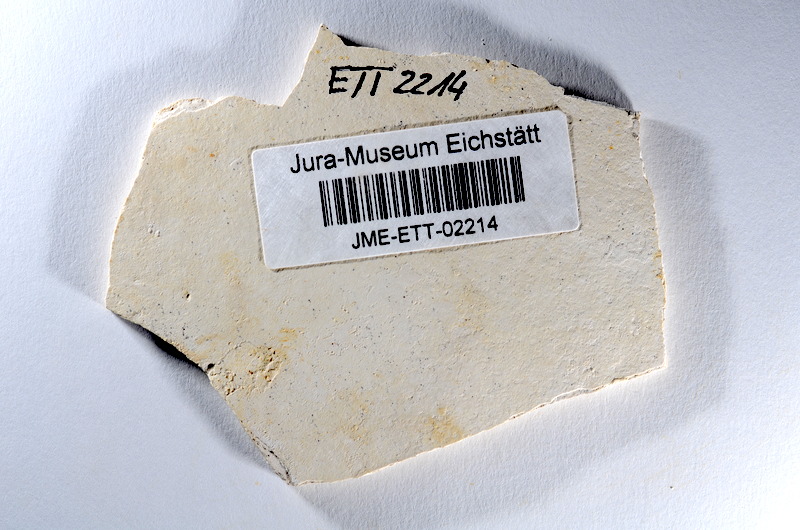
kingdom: Animalia
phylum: Chordata
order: Salmoniformes
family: Orthogonikleithridae
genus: Orthogonikleithrus
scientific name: Orthogonikleithrus hoelli
